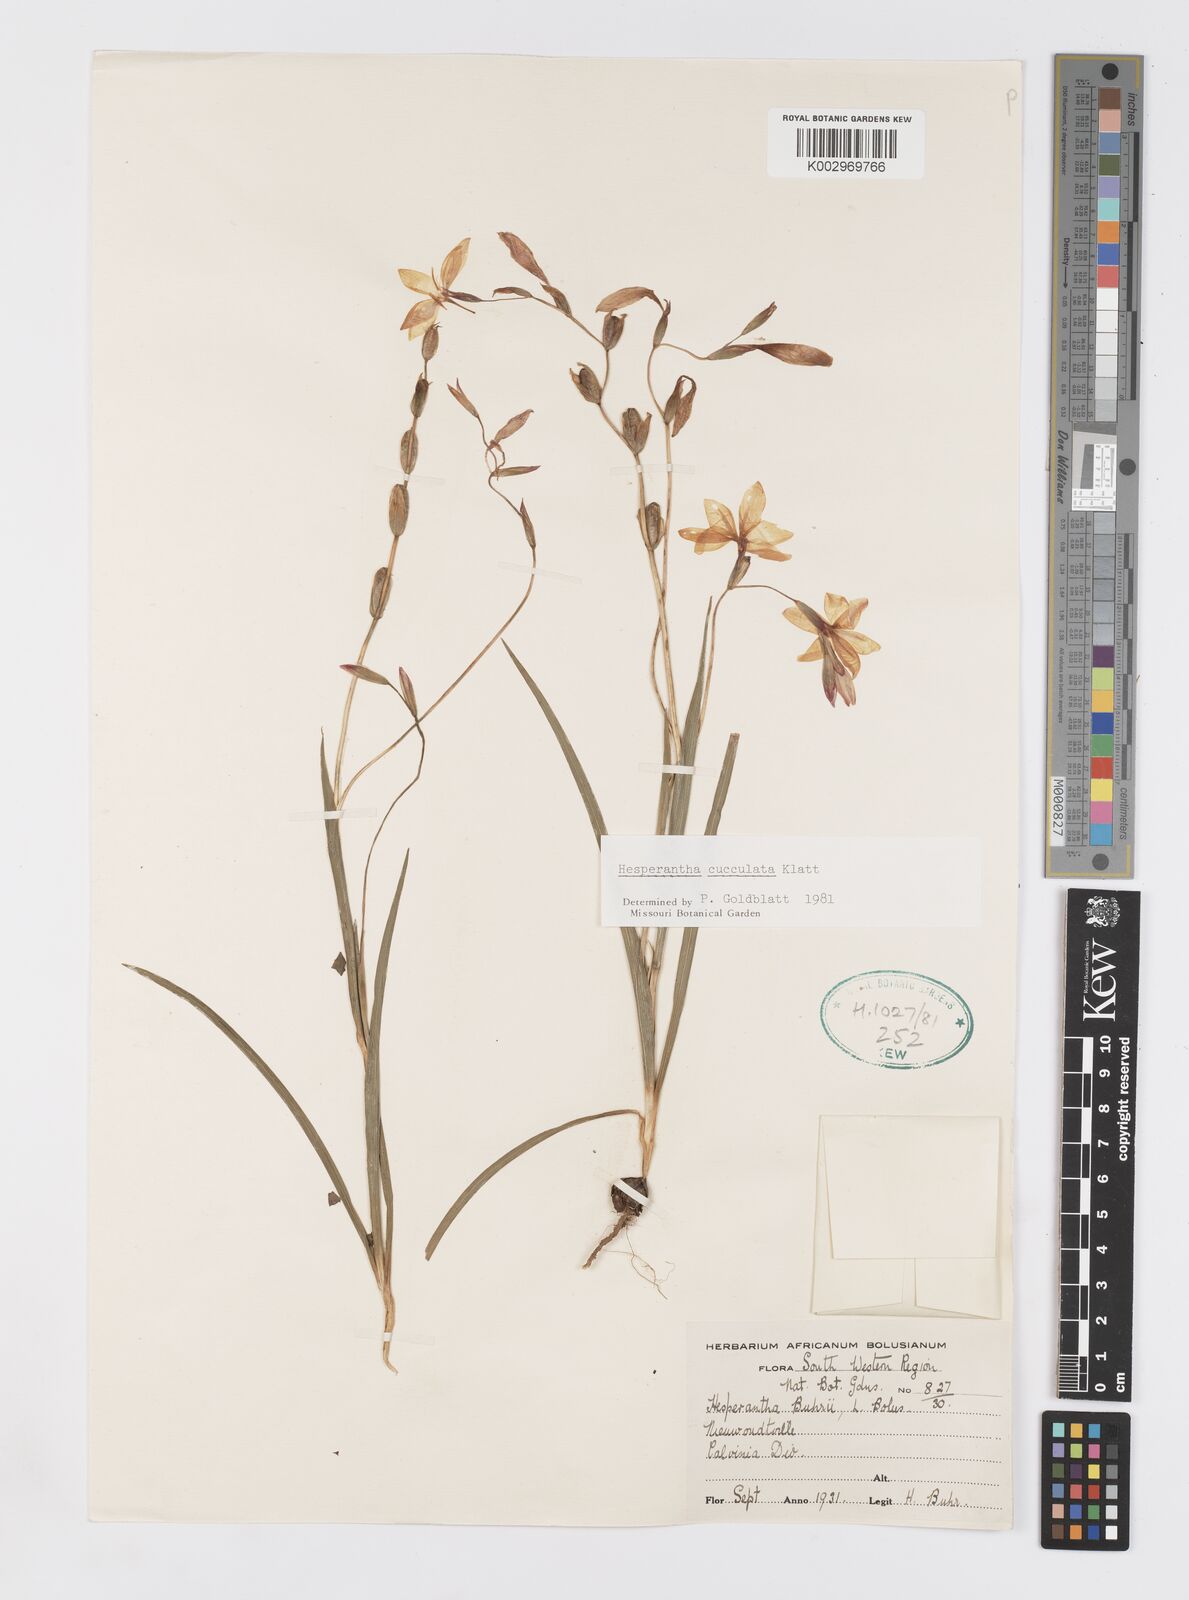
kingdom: Plantae
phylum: Tracheophyta
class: Liliopsida
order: Asparagales
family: Iridaceae
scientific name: Iridaceae
